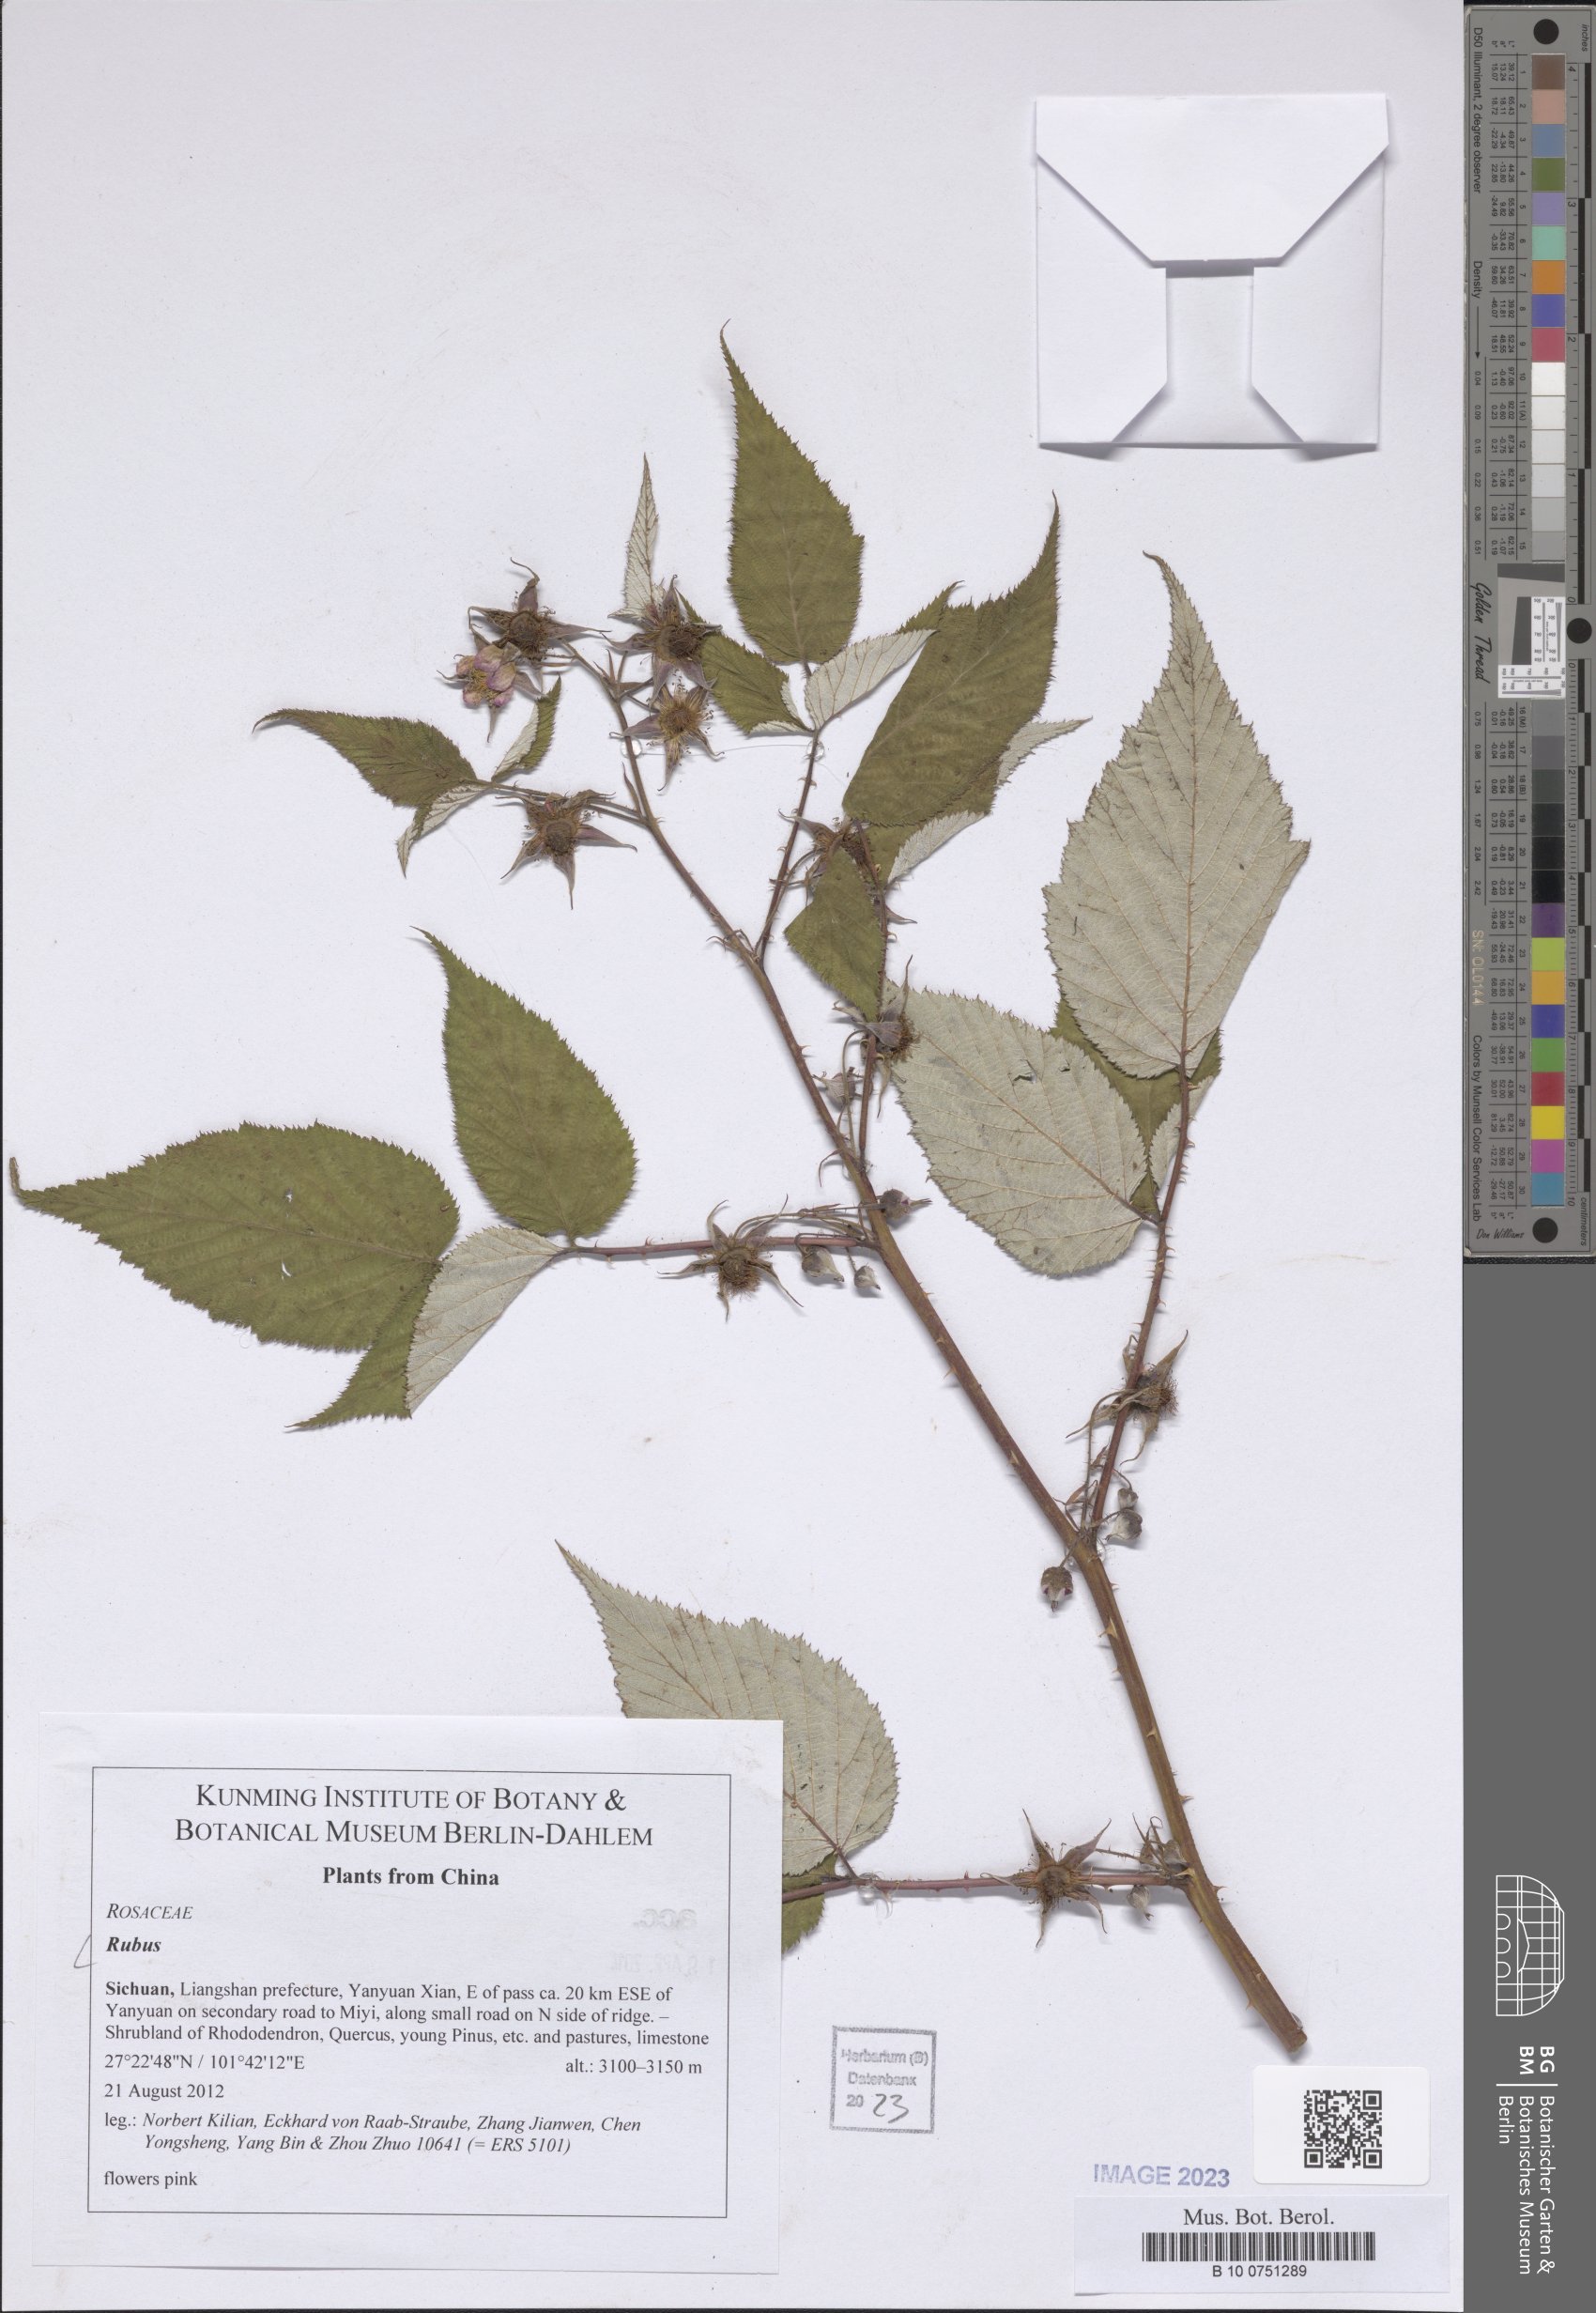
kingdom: Plantae
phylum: Tracheophyta
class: Magnoliopsida
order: Rosales
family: Rosaceae
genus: Rubus
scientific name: Rubus
